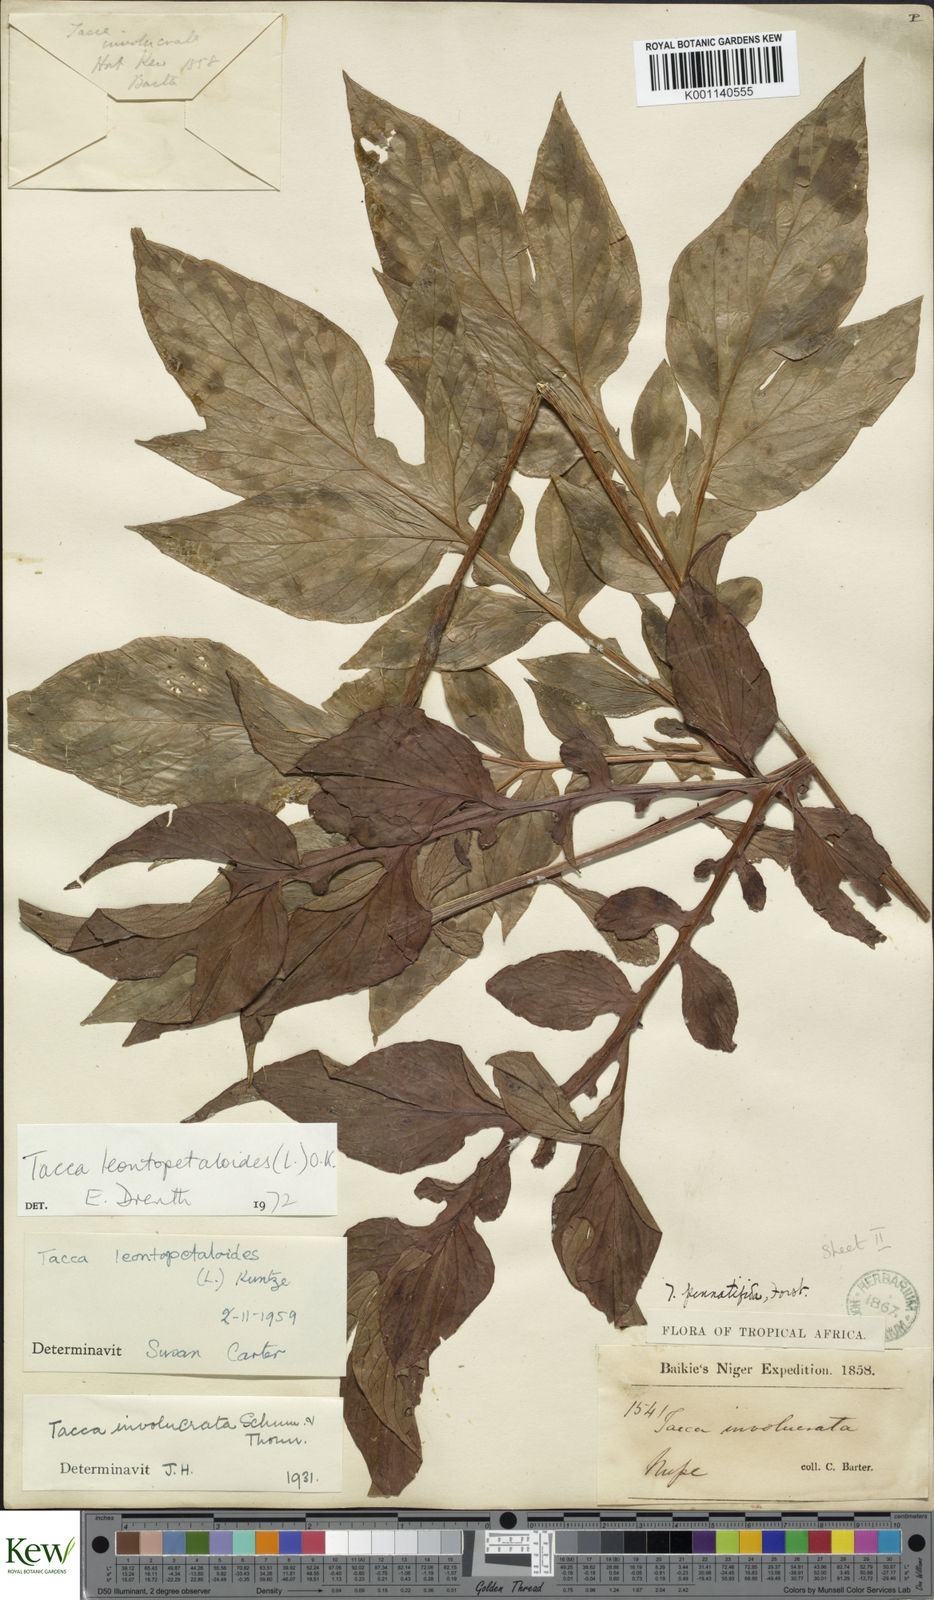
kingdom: Plantae
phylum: Tracheophyta
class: Liliopsida
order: Dioscoreales
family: Dioscoreaceae
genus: Tacca
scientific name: Tacca leontopetaloides
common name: Arrowroot
